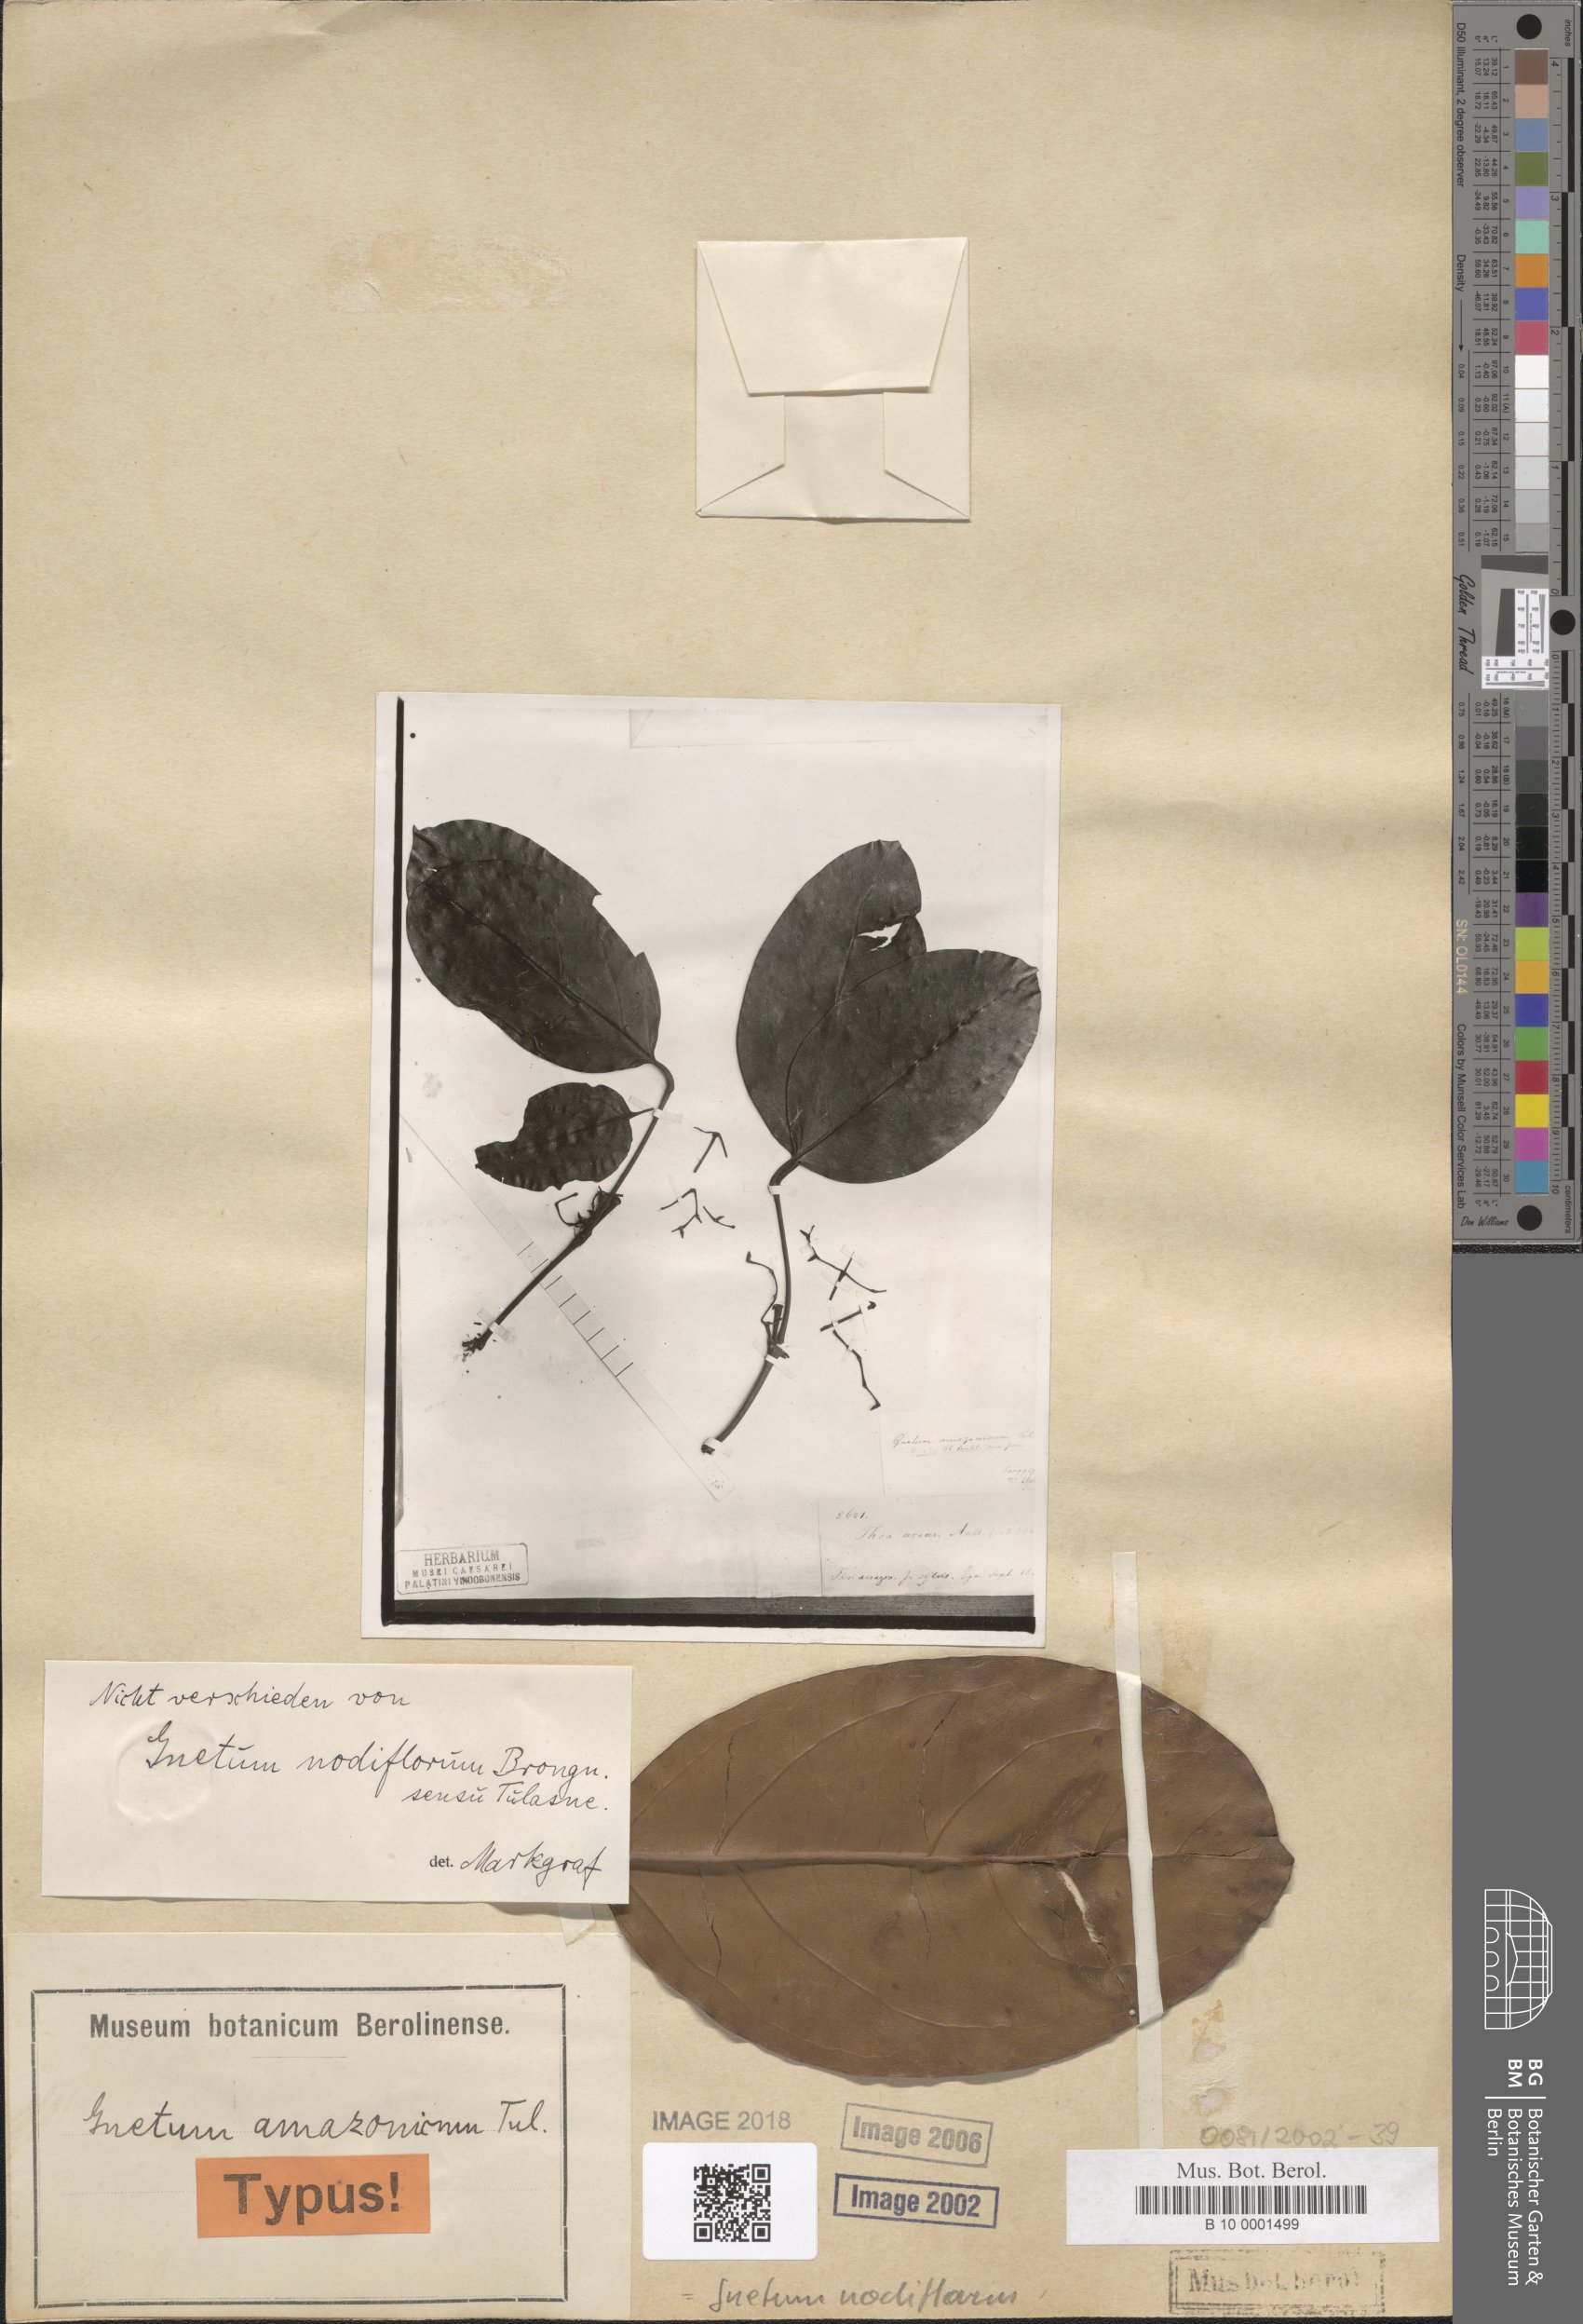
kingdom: Plantae
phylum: Tracheophyta
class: Gnetopsida
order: Gnetales
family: Gnetaceae
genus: Gnetum
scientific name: Gnetum nodiflorum
